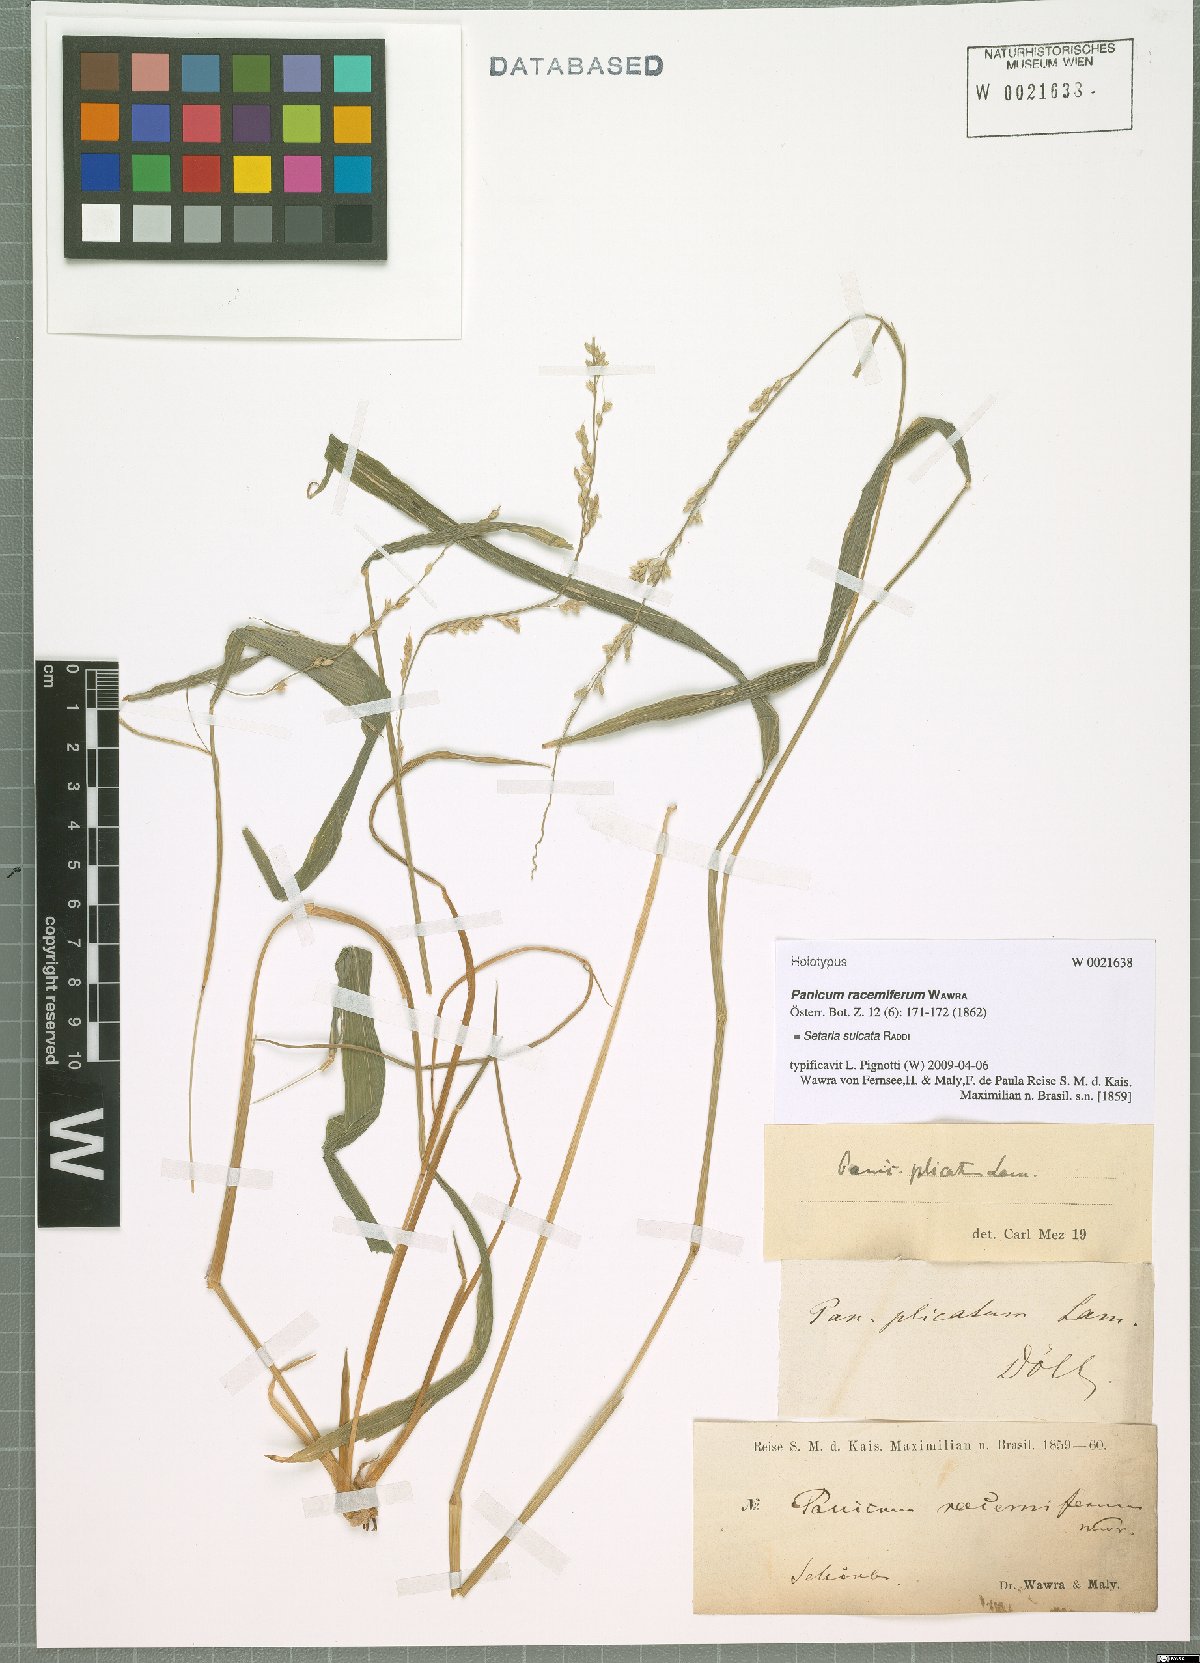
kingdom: Plantae
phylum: Tracheophyta
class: Liliopsida
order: Poales
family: Poaceae
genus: Setaria
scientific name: Setaria sulcata
